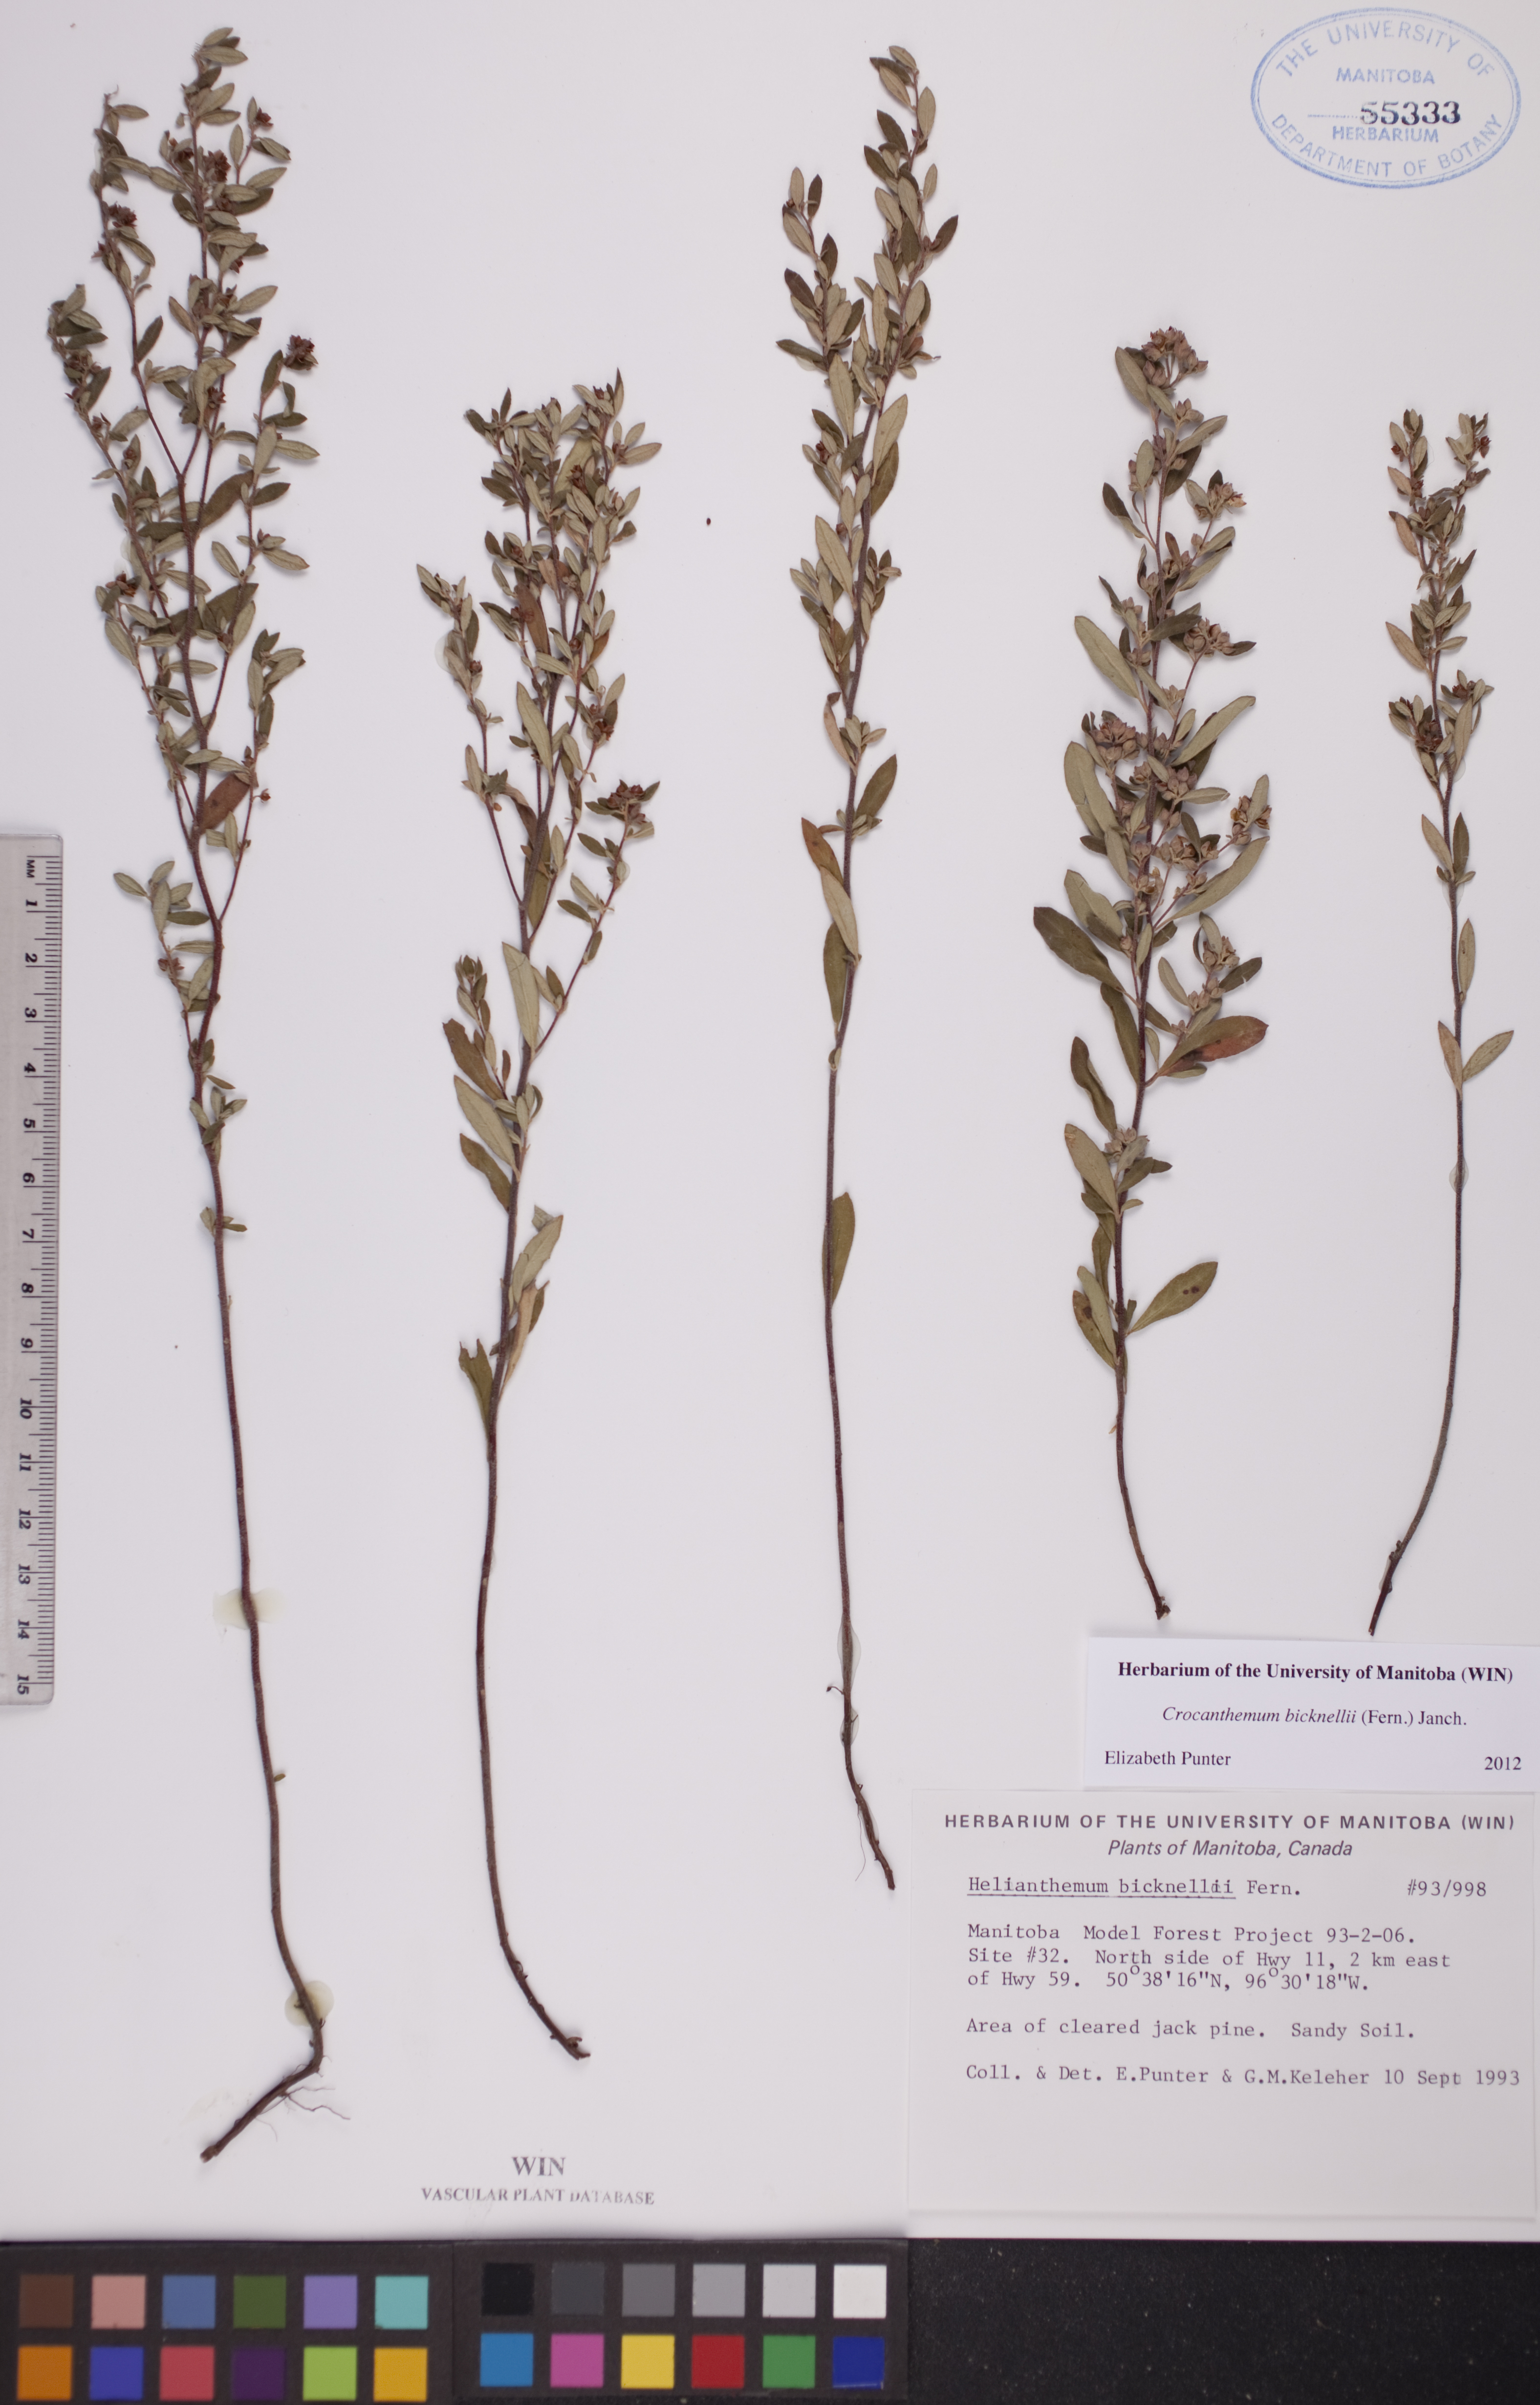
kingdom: Plantae
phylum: Tracheophyta
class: Magnoliopsida
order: Malvales
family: Cistaceae
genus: Crocanthemum
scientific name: Crocanthemum bicknellii
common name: Hoary frostweed
